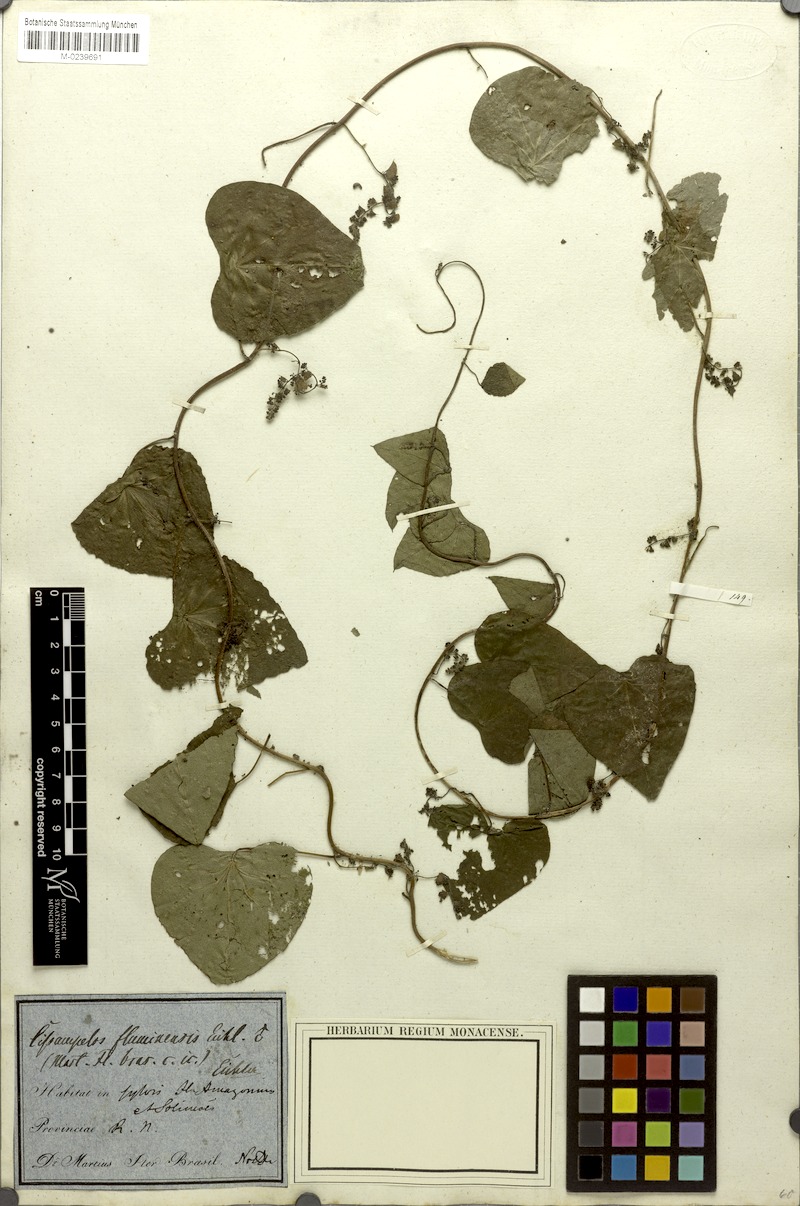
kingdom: Plantae
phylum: Tracheophyta
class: Magnoliopsida
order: Ranunculales
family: Menispermaceae
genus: Cissampelos
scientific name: Cissampelos tropaeolifolia
